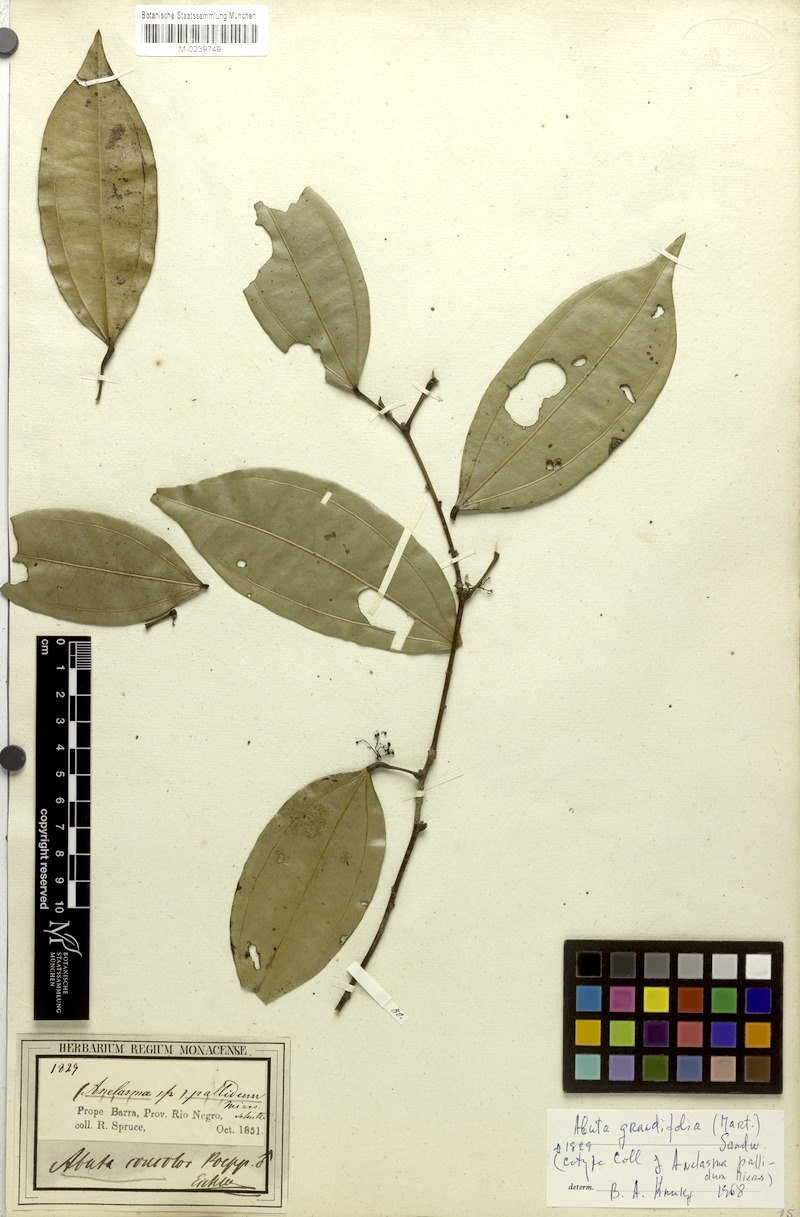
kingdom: Plantae
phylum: Tracheophyta
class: Magnoliopsida
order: Ranunculales
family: Menispermaceae
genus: Abuta
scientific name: Abuta grandifolia
